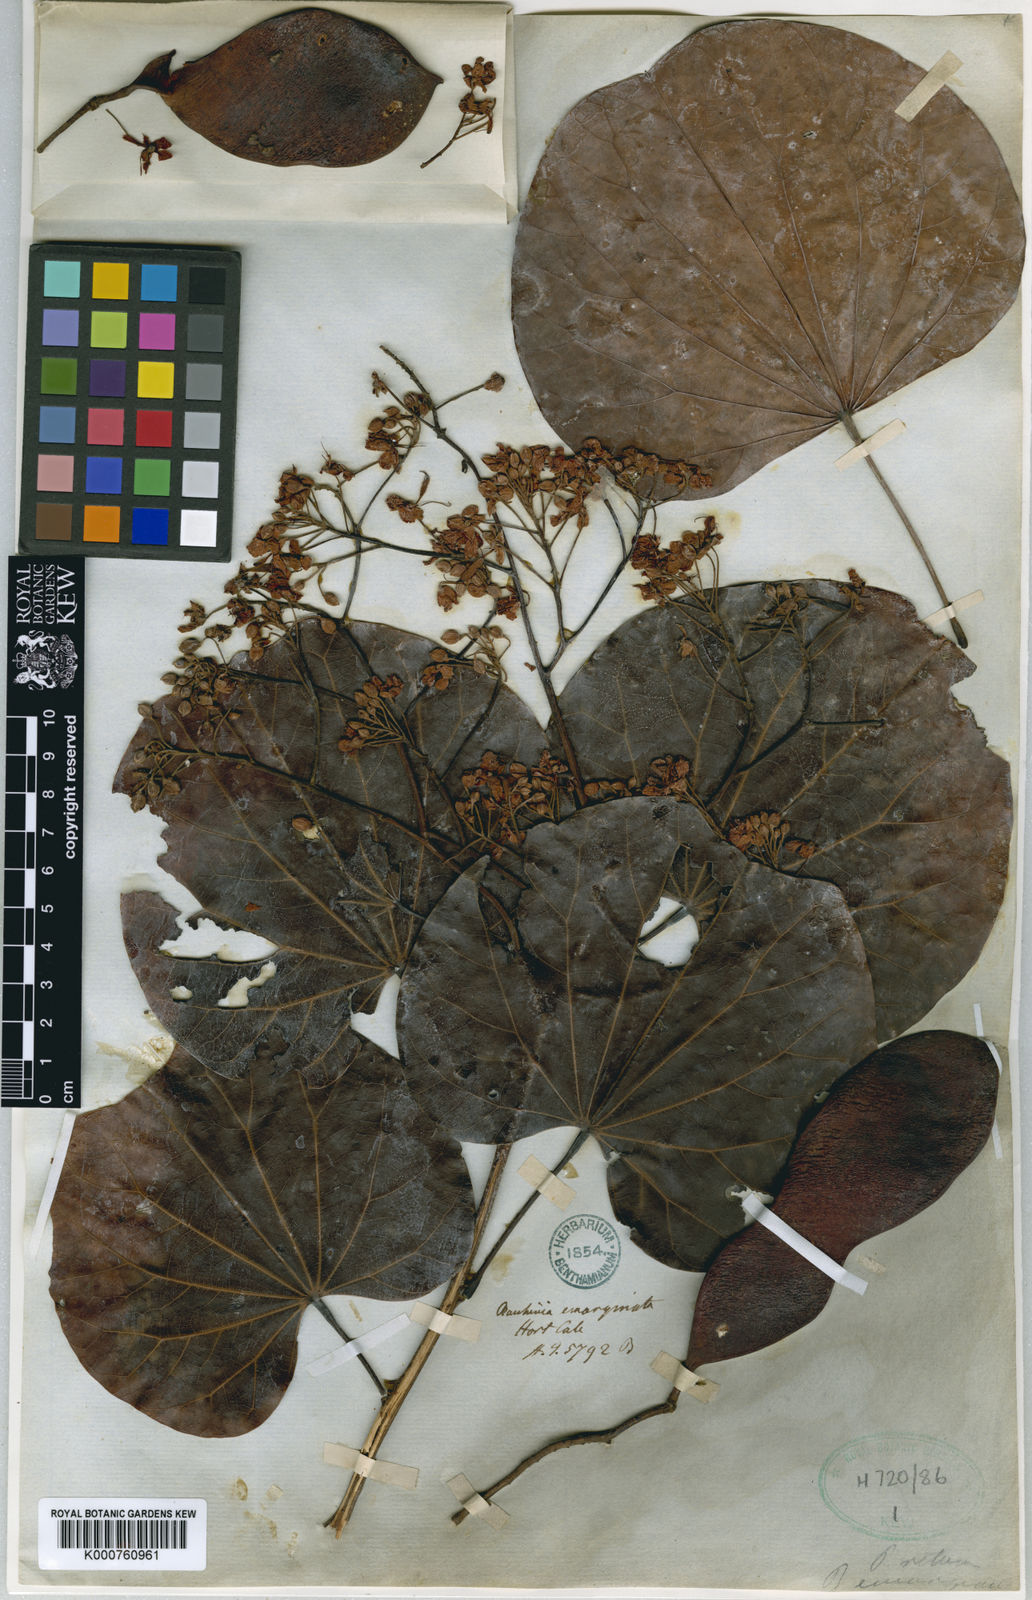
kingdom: Plantae
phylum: Tracheophyta
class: Magnoliopsida
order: Fabales
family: Fabaceae
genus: Phanera
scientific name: Phanera roxburghiana
